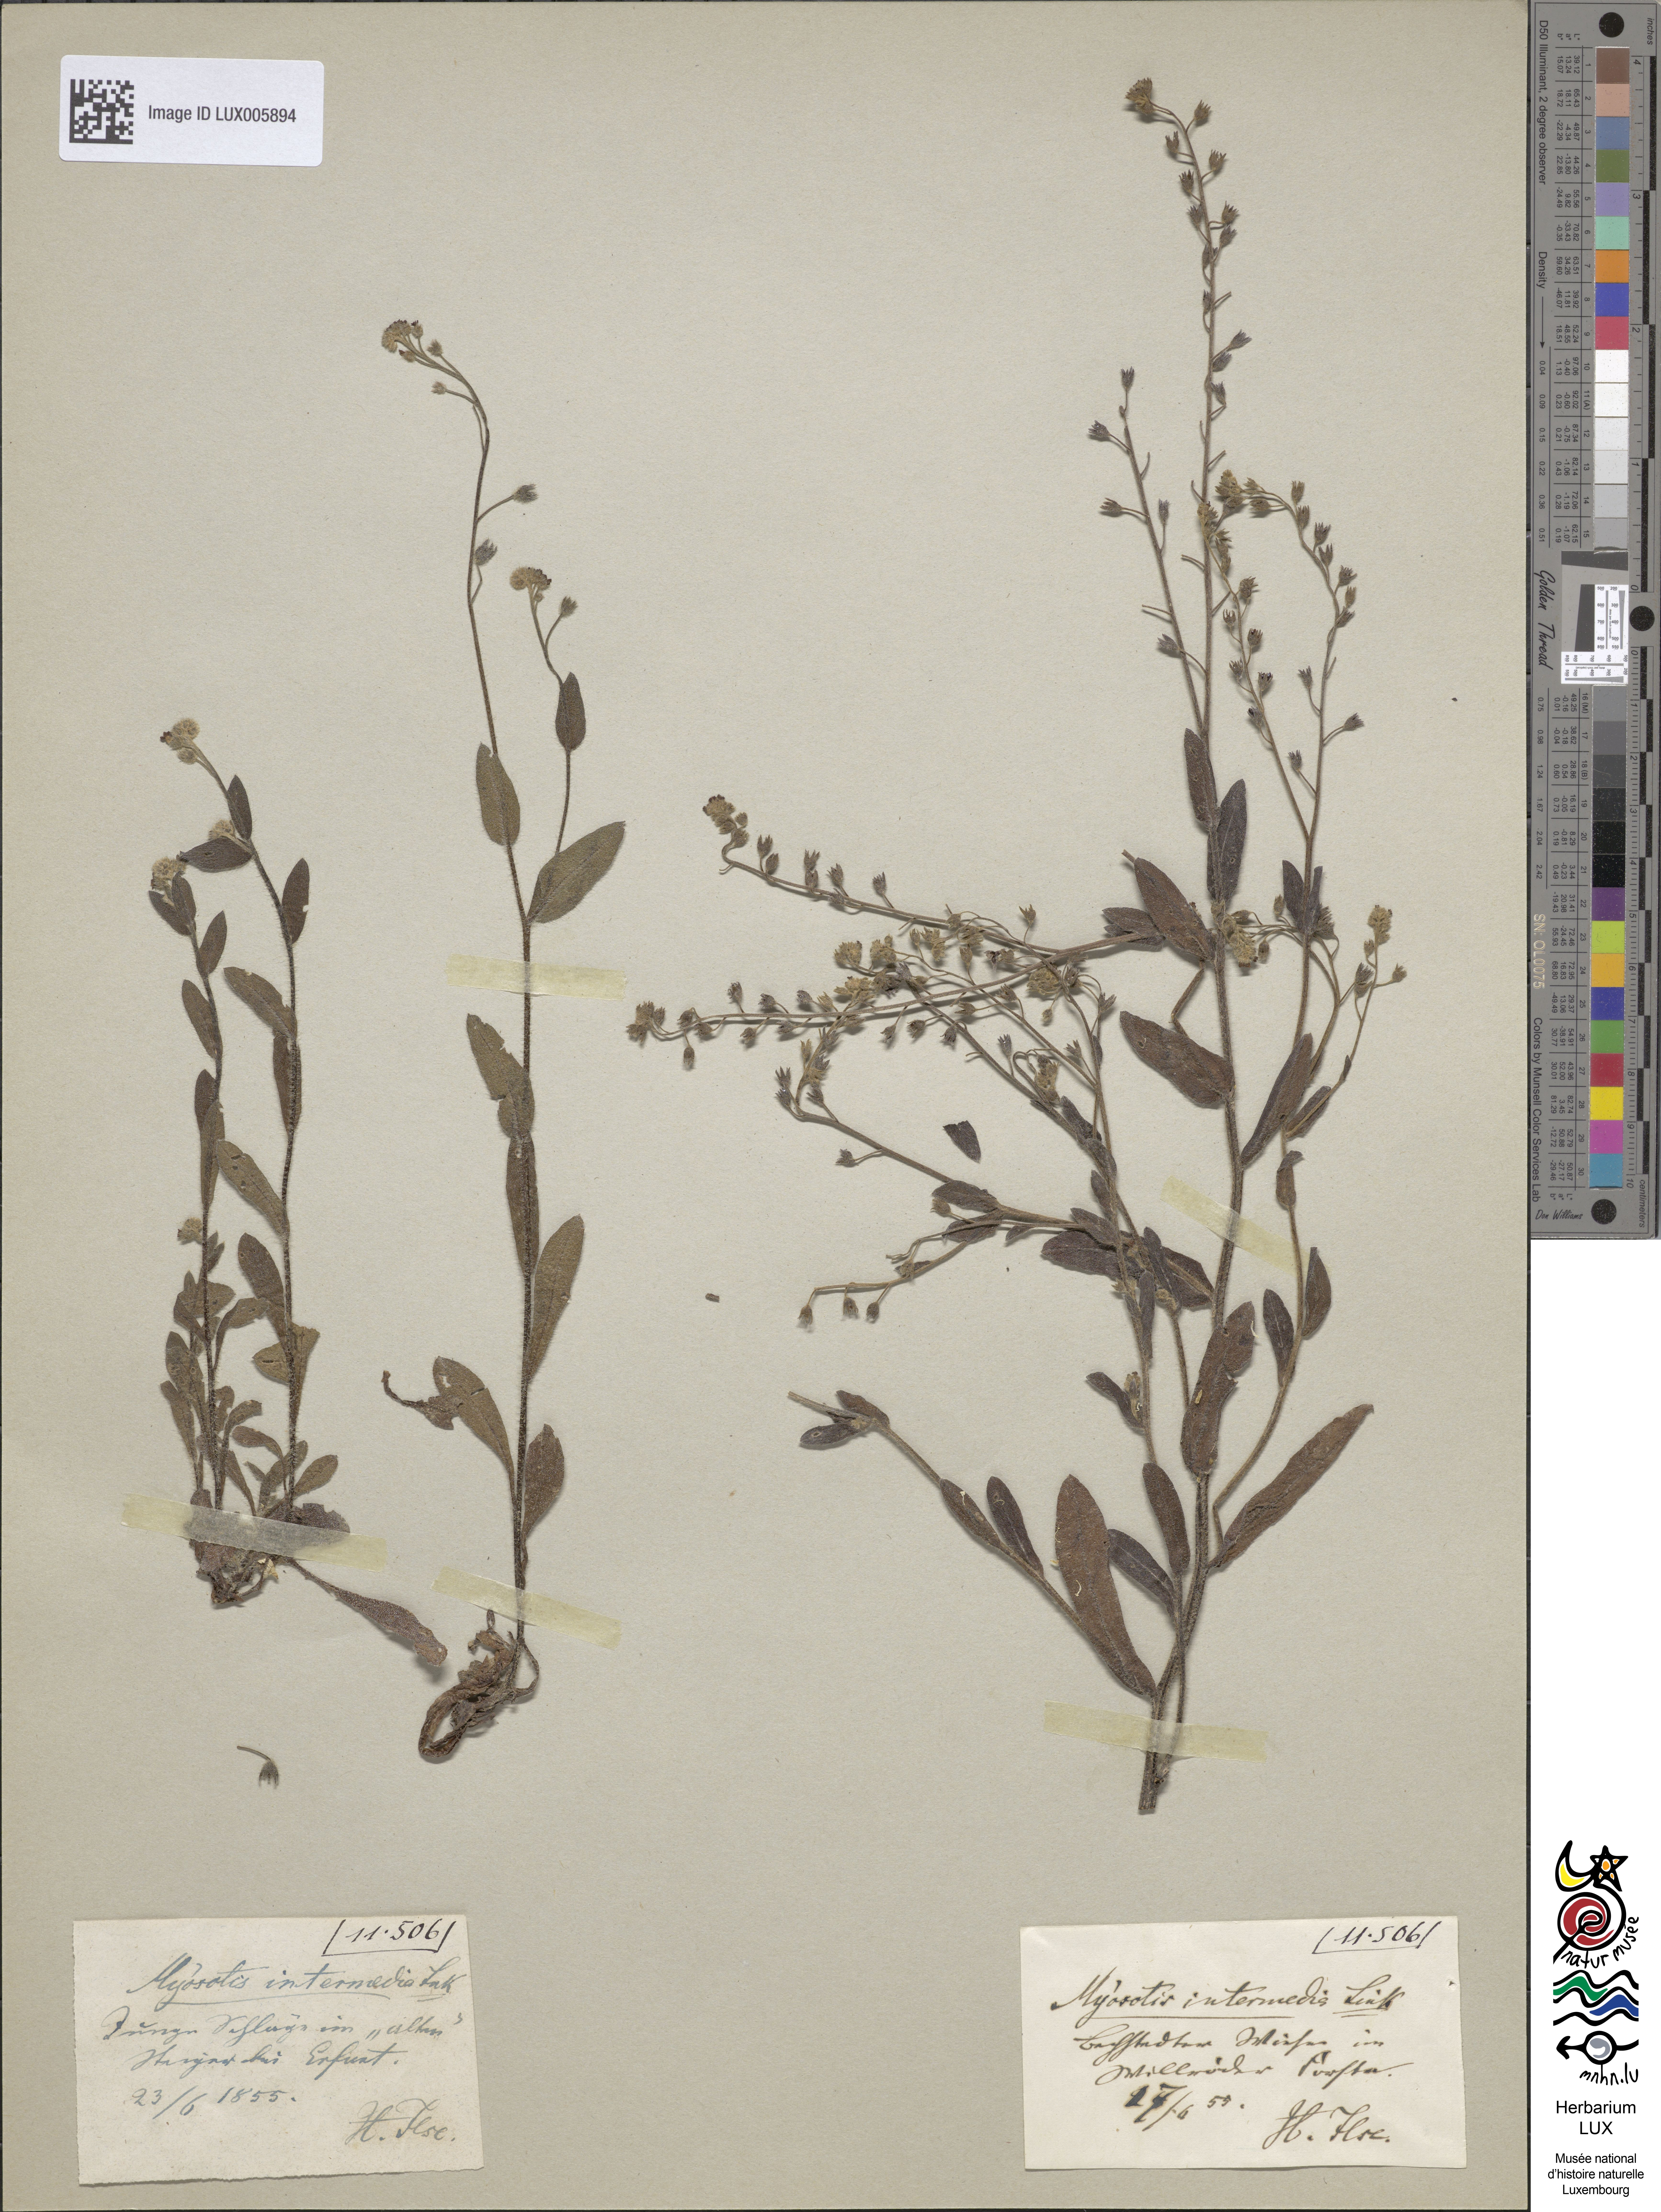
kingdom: Plantae
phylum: Tracheophyta
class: Magnoliopsida
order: Boraginales
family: Boraginaceae
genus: Myosotis
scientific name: Myosotis arvensis
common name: Field forget-me-not
